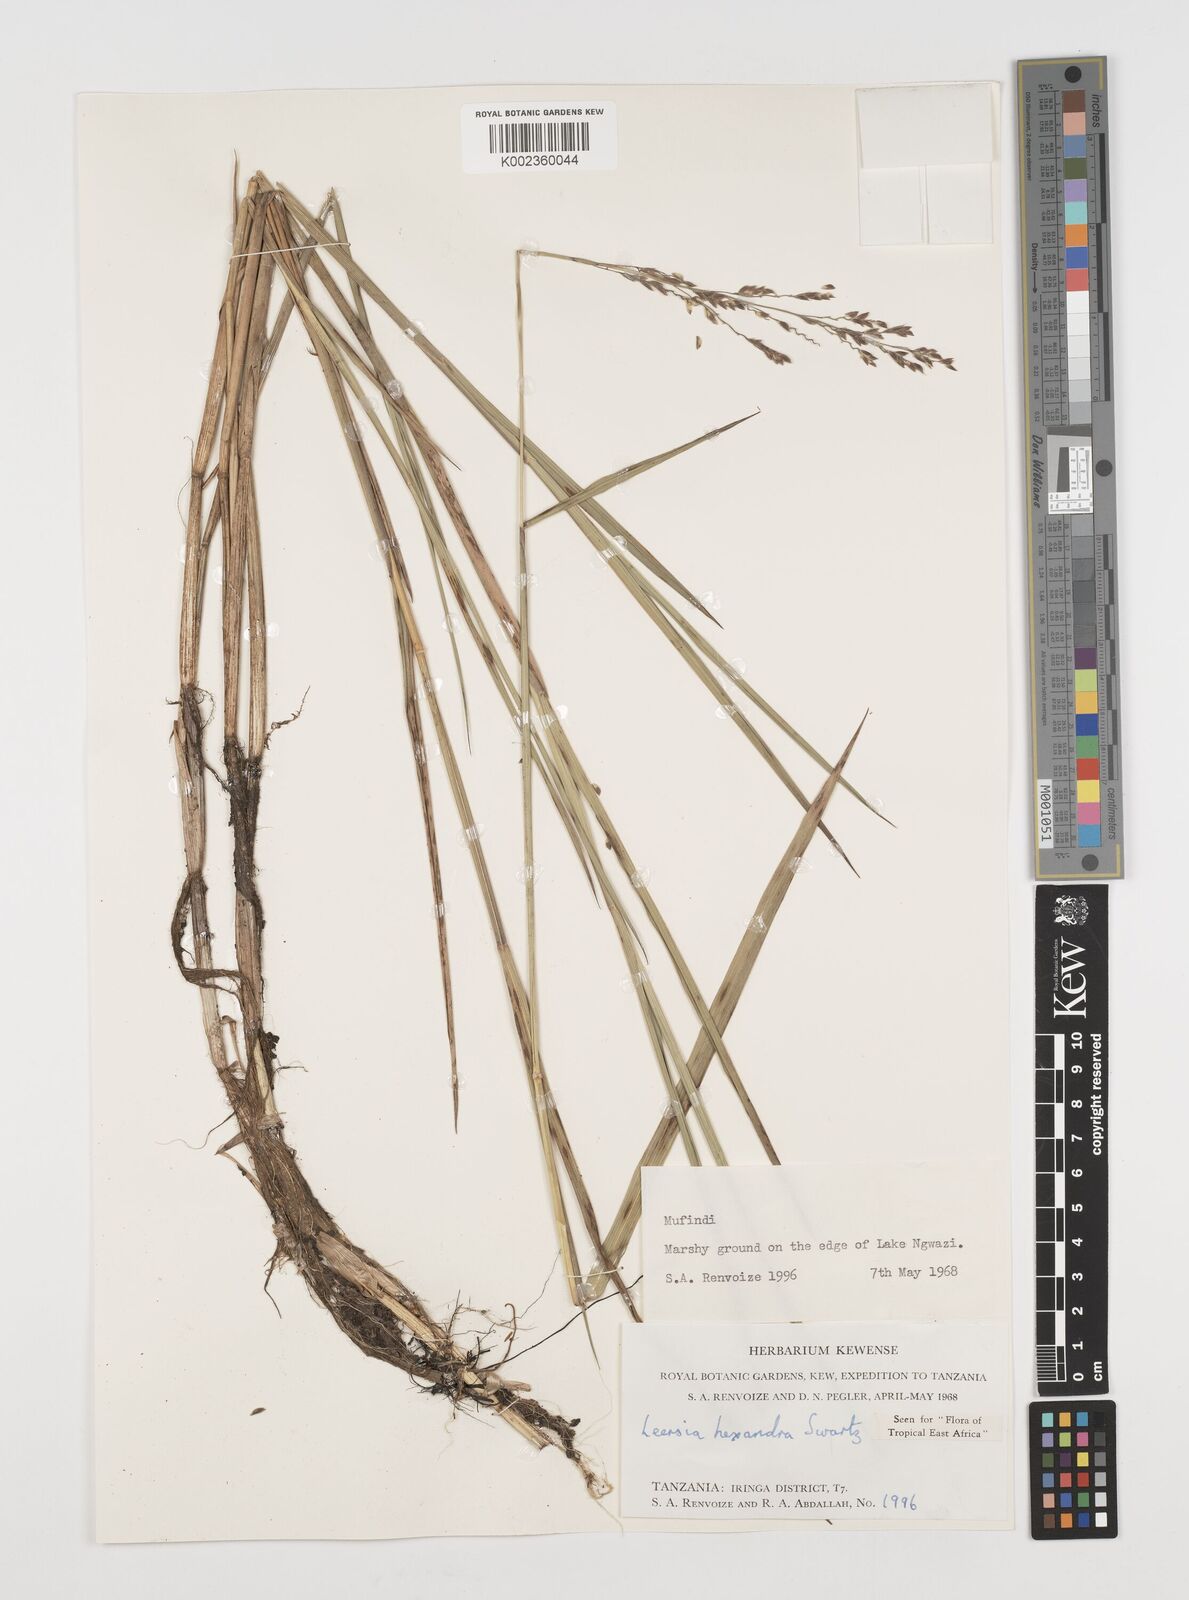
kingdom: Plantae
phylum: Tracheophyta
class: Liliopsida
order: Poales
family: Poaceae
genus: Leersia
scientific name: Leersia hexandra
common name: Southern cut grass
